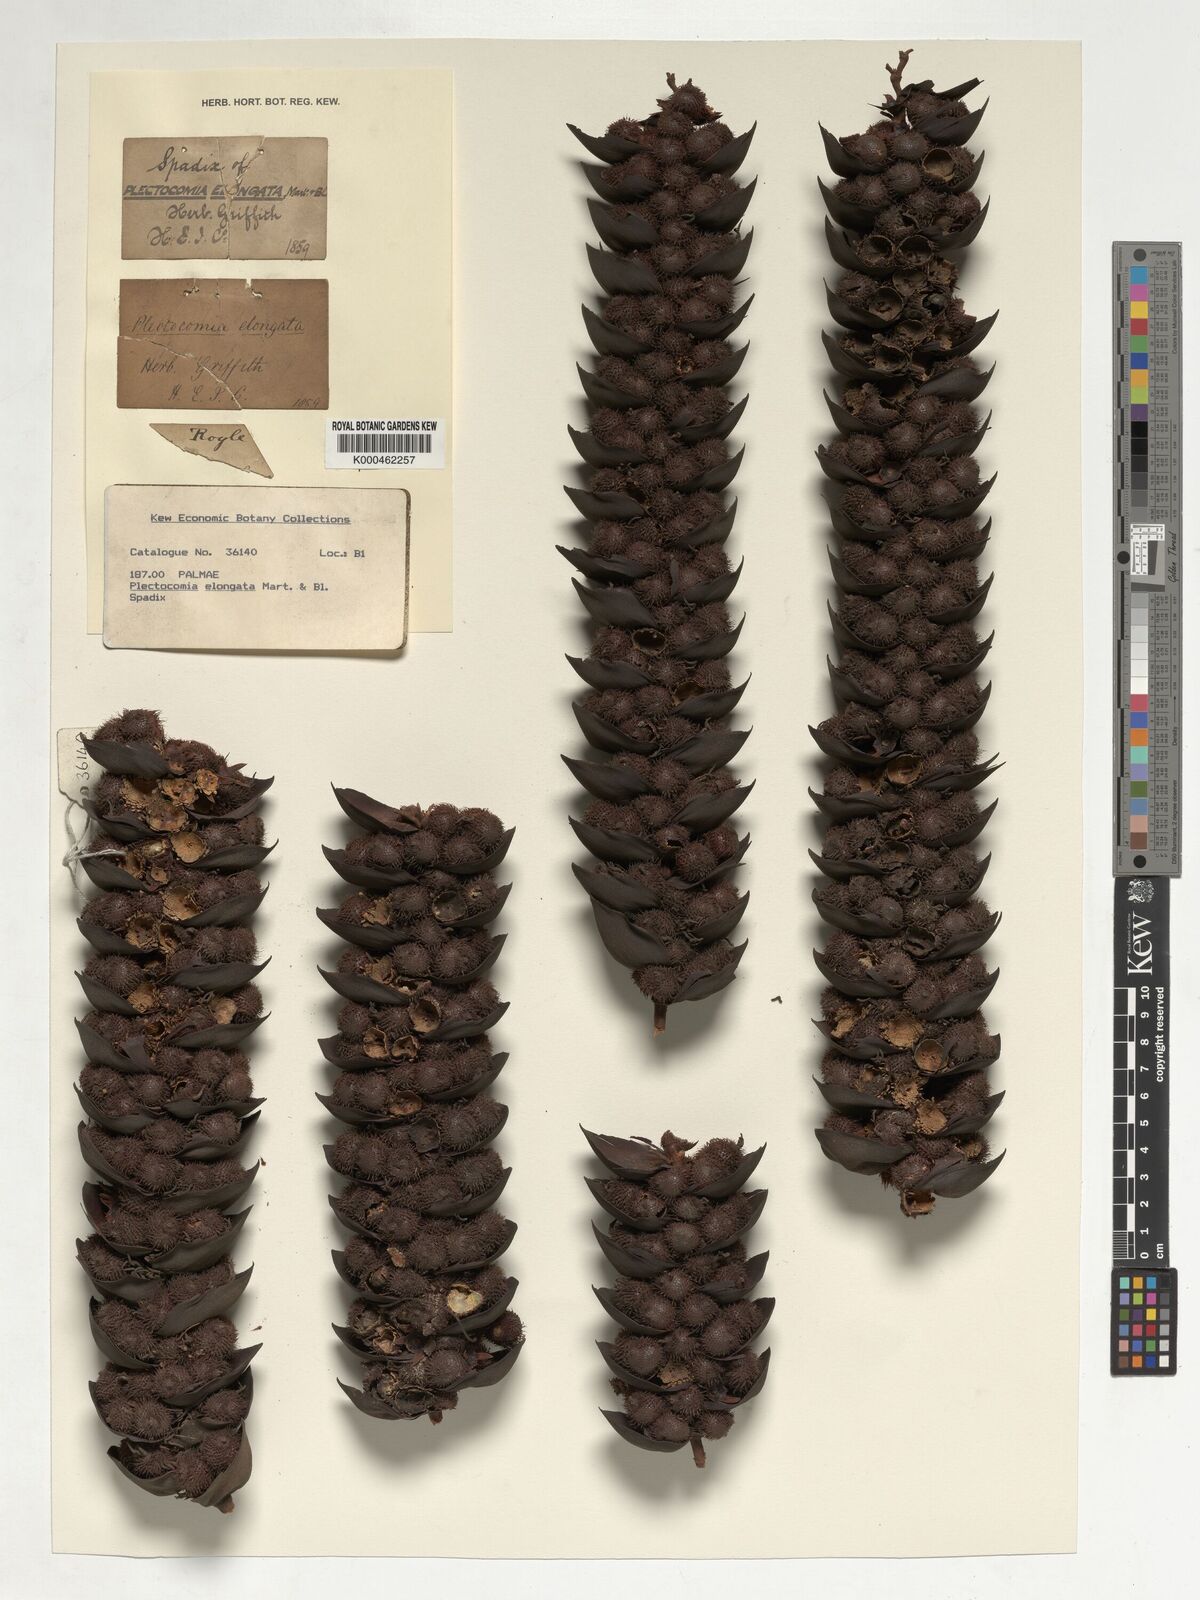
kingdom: Plantae
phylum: Tracheophyta
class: Liliopsida
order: Arecales
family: Arecaceae
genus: Plectocomia
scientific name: Plectocomia elongata
